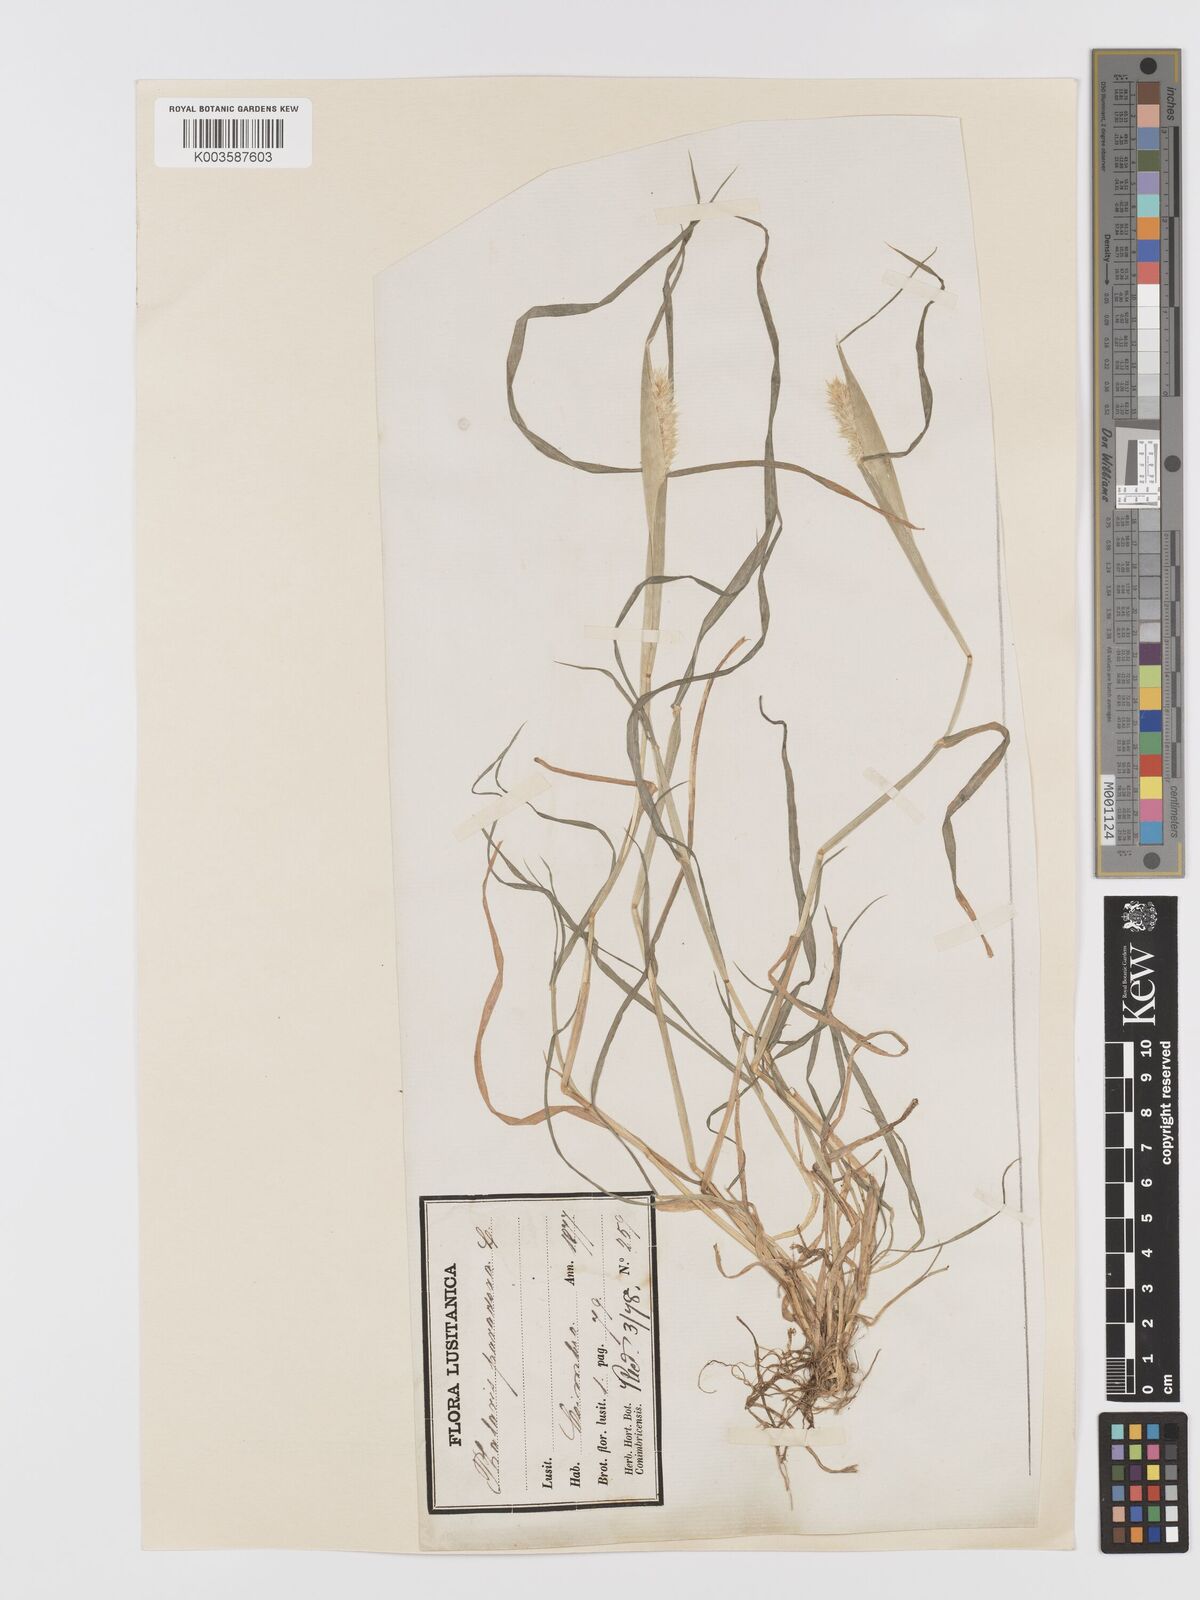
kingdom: Plantae
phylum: Tracheophyta
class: Liliopsida
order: Poales
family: Poaceae
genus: Phalaris
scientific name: Phalaris paradoxa
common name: Awned canary-grass
